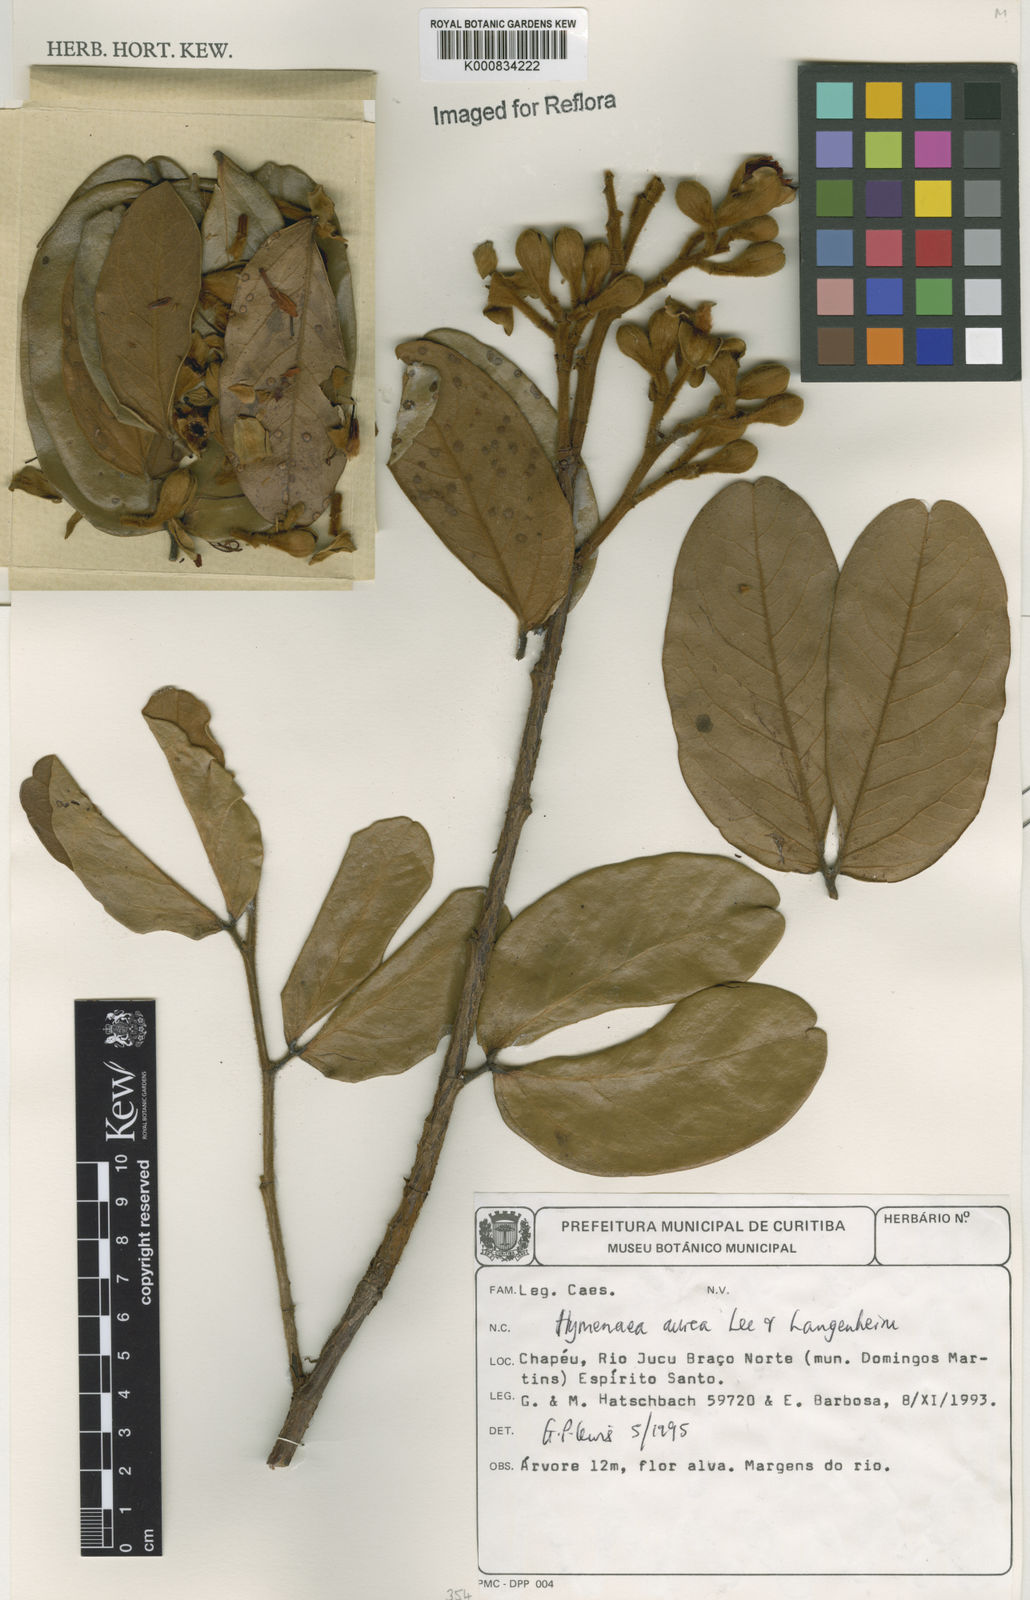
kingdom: Plantae
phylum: Tracheophyta
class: Magnoliopsida
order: Fabales
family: Fabaceae
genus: Hymenaea
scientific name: Hymenaea
